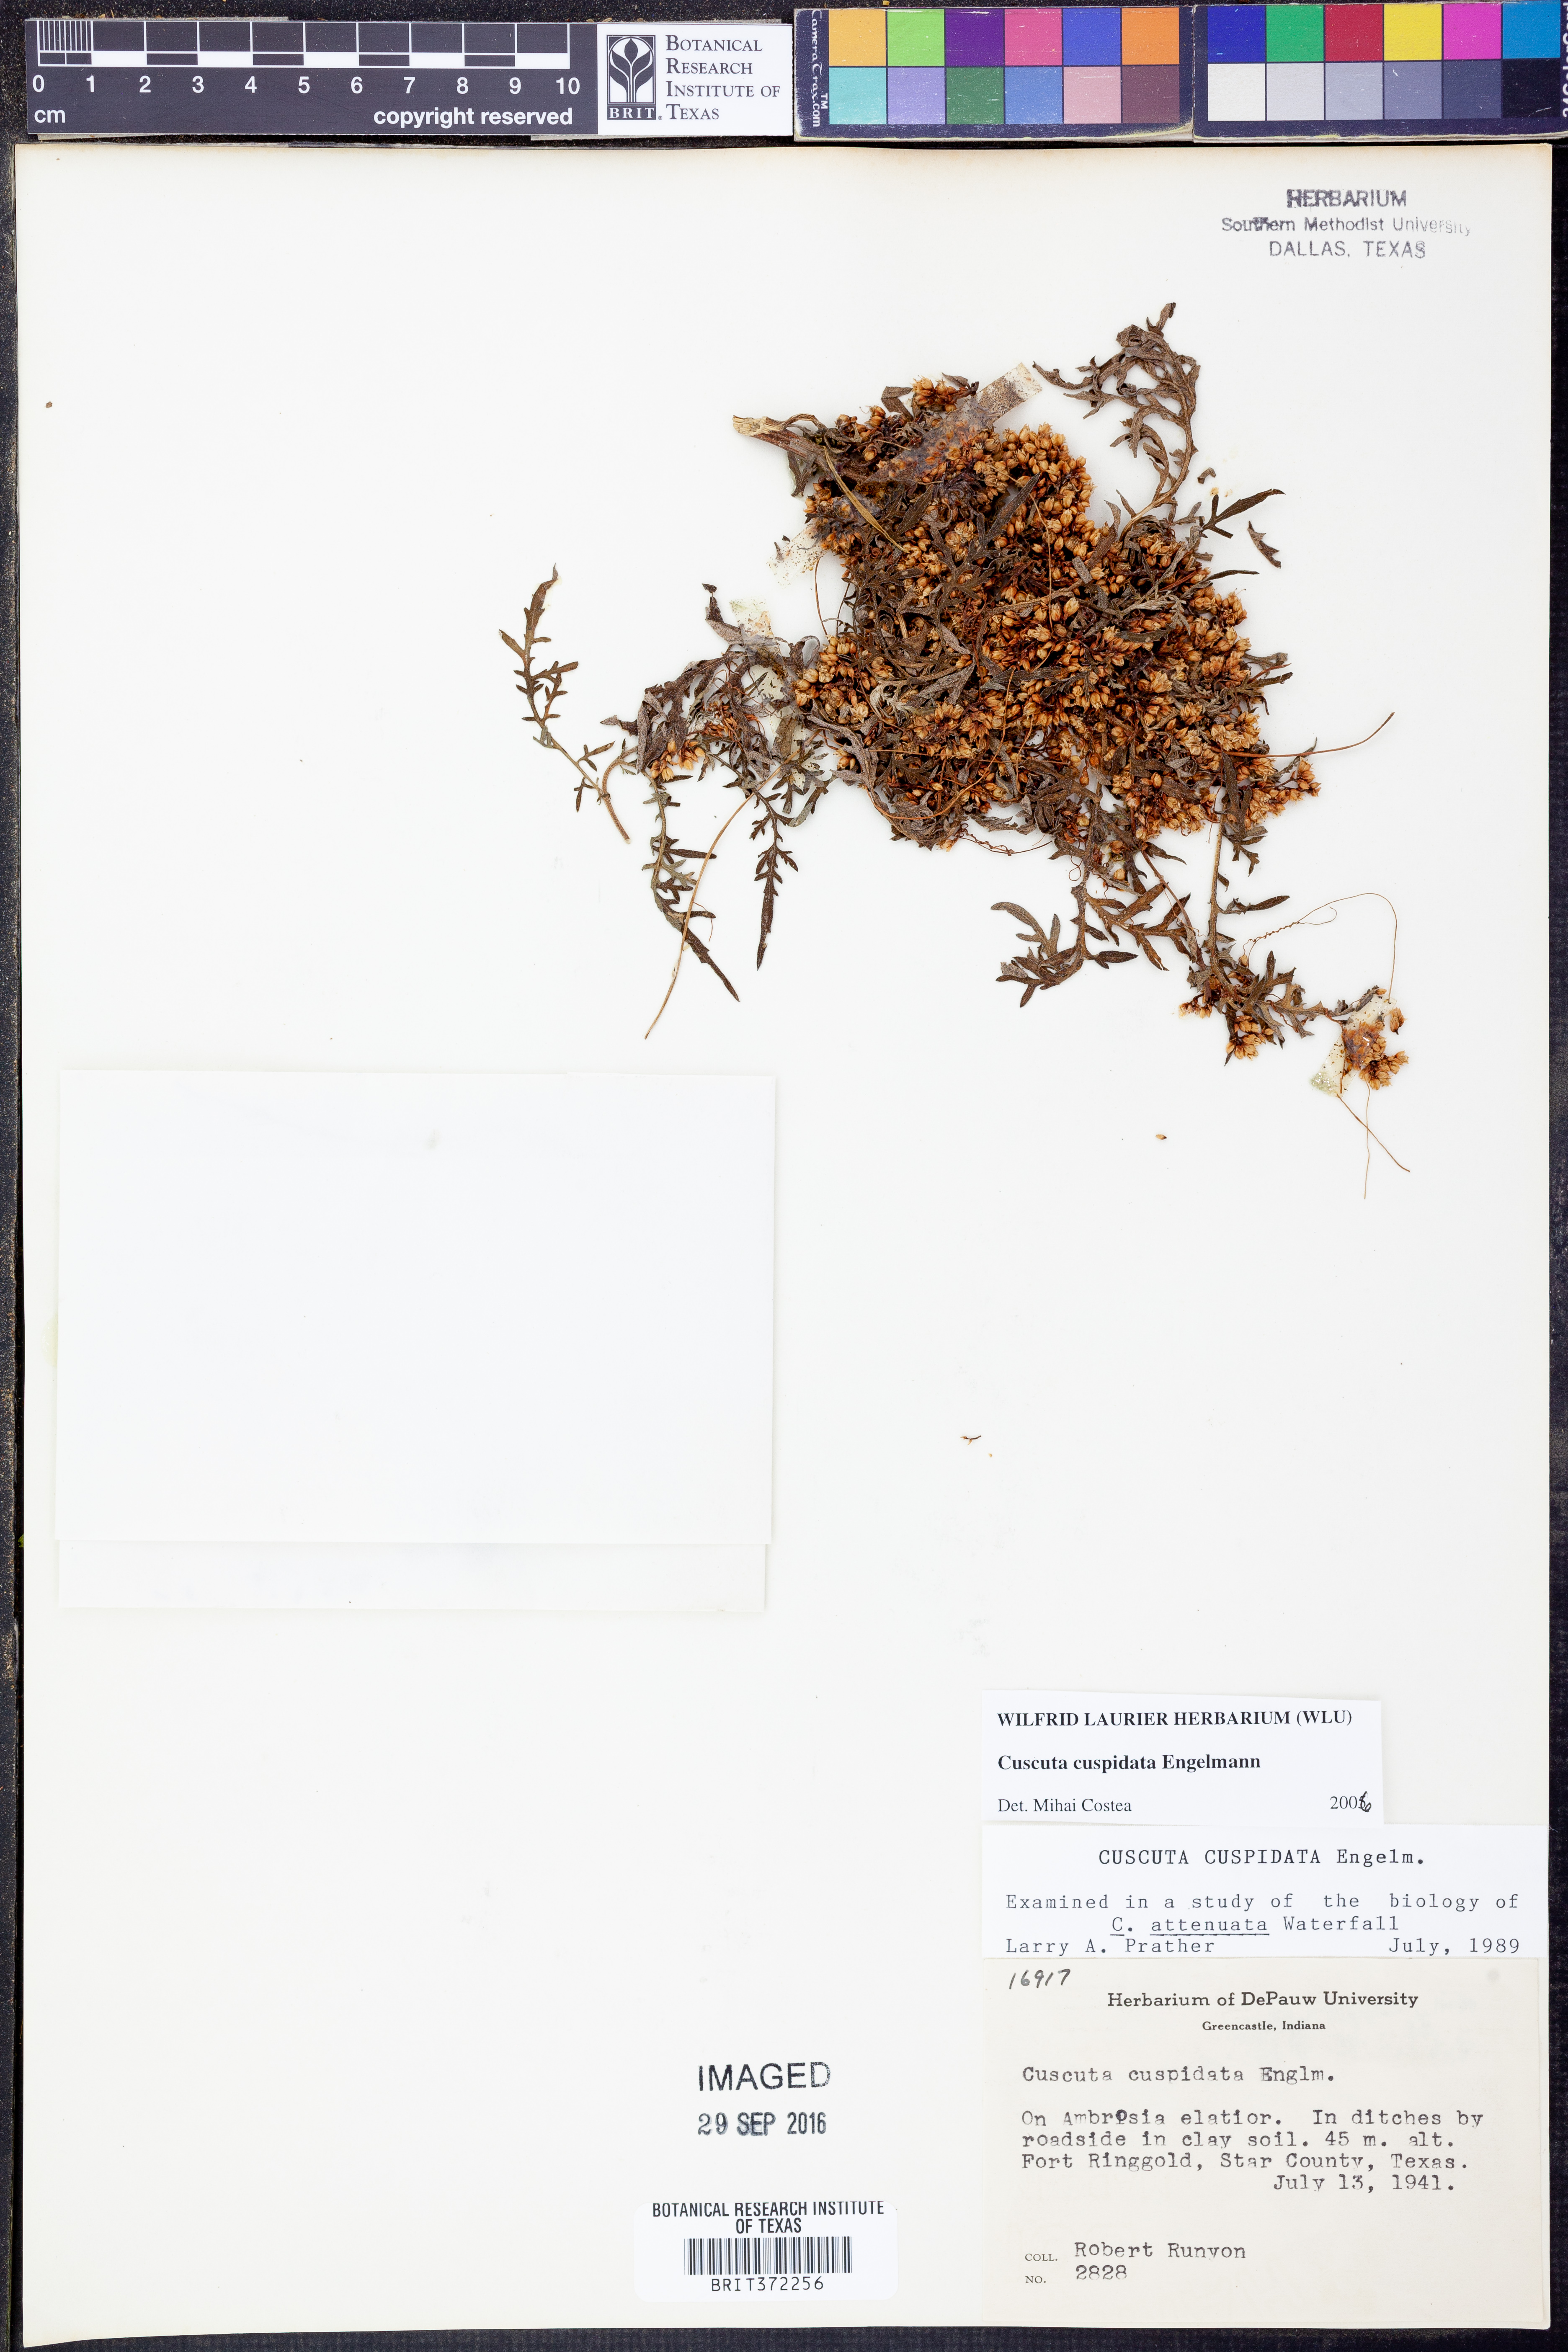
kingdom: Plantae
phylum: Tracheophyta
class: Magnoliopsida
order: Solanales
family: Convolvulaceae
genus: Cuscuta
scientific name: Cuscuta cuspidata
